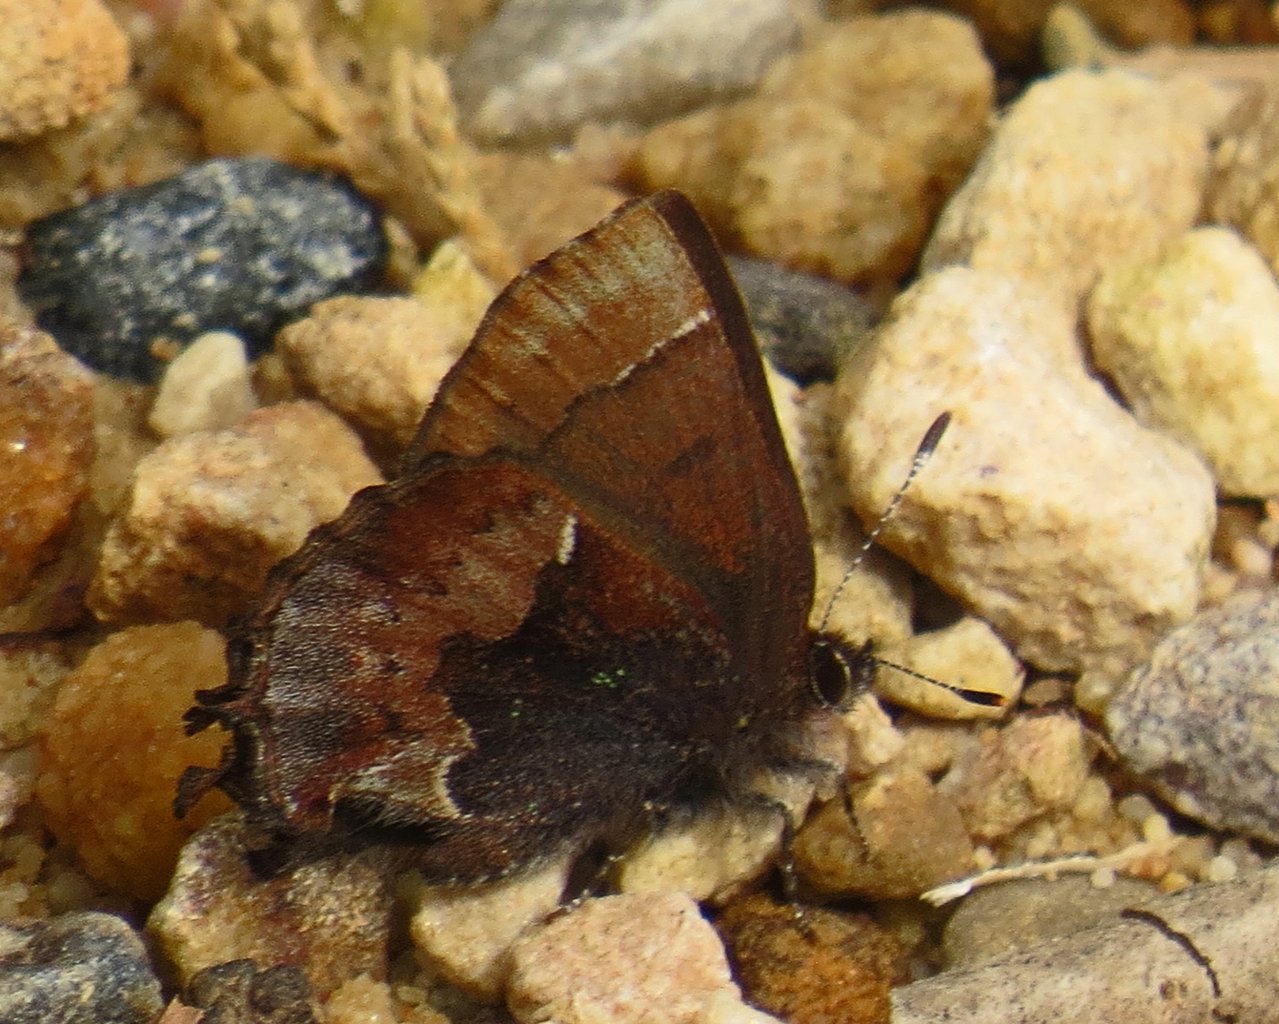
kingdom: Animalia
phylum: Arthropoda
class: Insecta
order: Lepidoptera
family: Lycaenidae
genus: Incisalia
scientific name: Incisalia henrici
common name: Henry's Elfin
